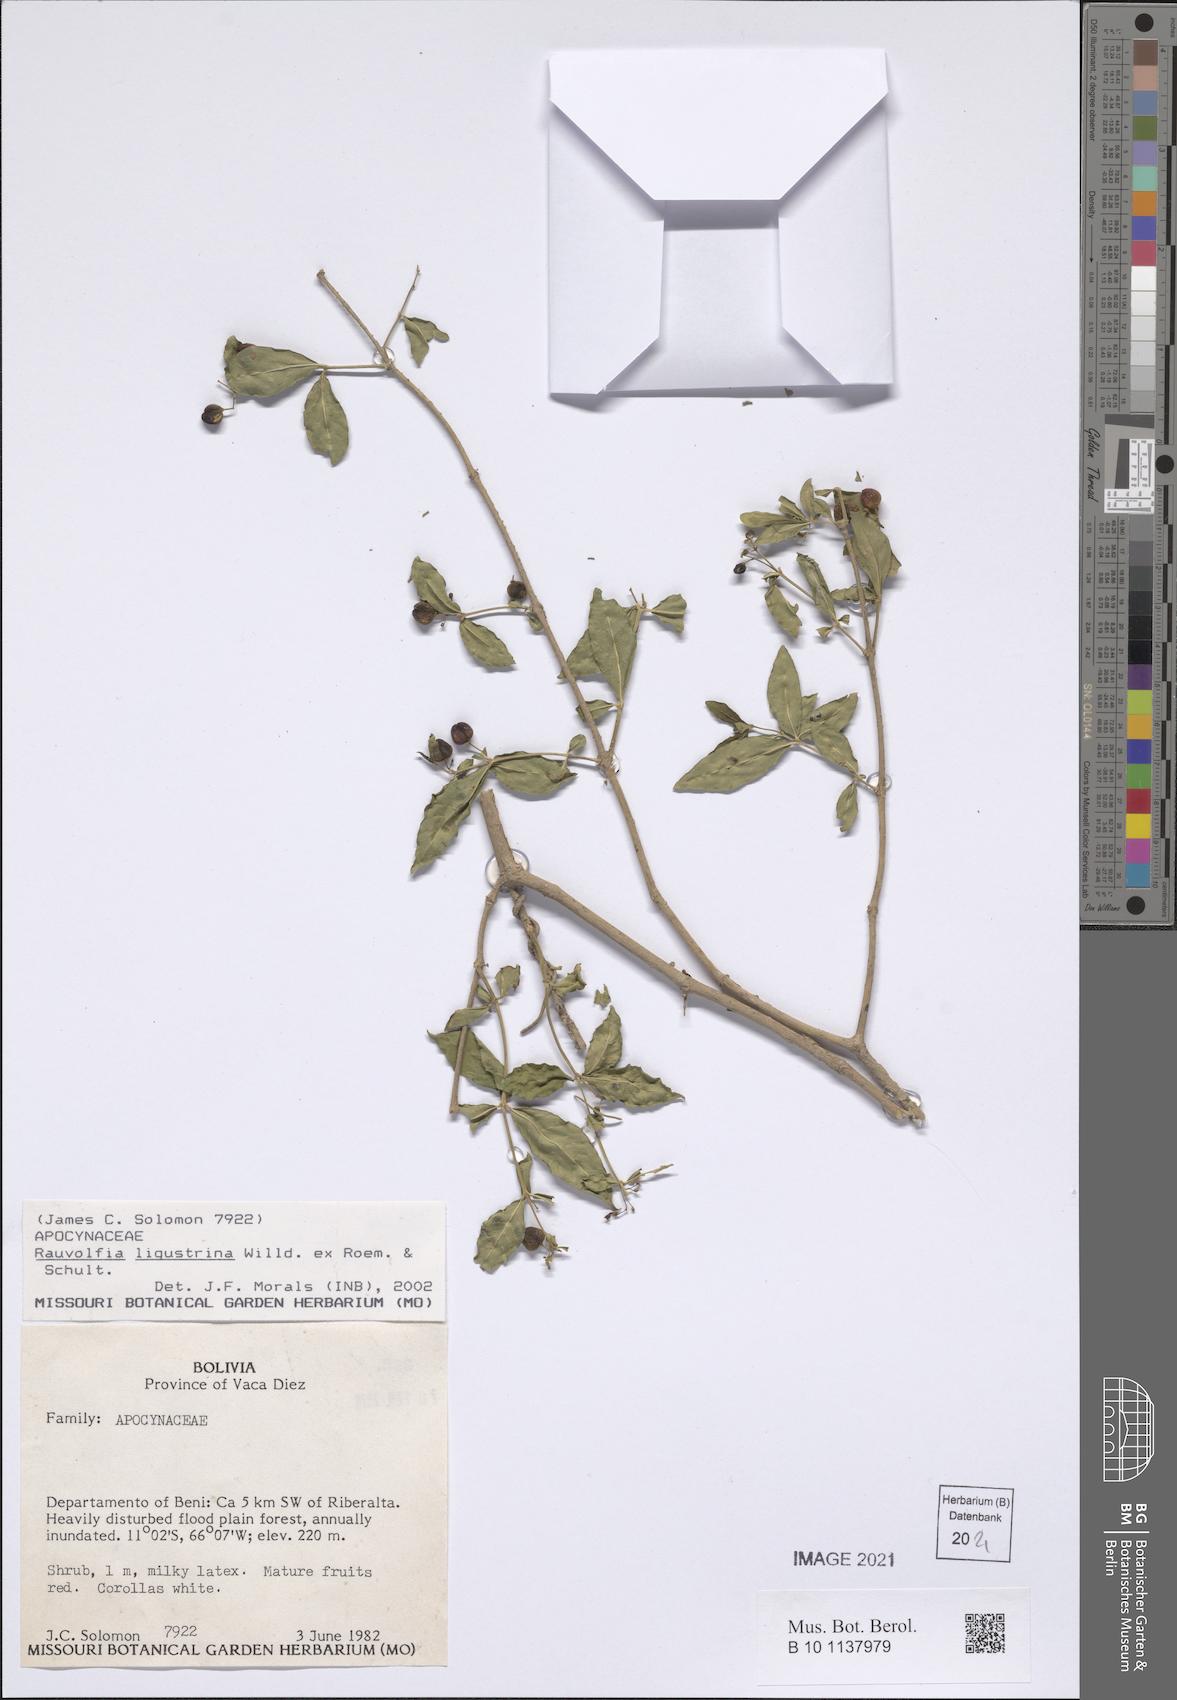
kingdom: Plantae
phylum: Tracheophyta
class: Magnoliopsida
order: Gentianales
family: Apocynaceae
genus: Mandevilla
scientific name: Mandevilla petraea
